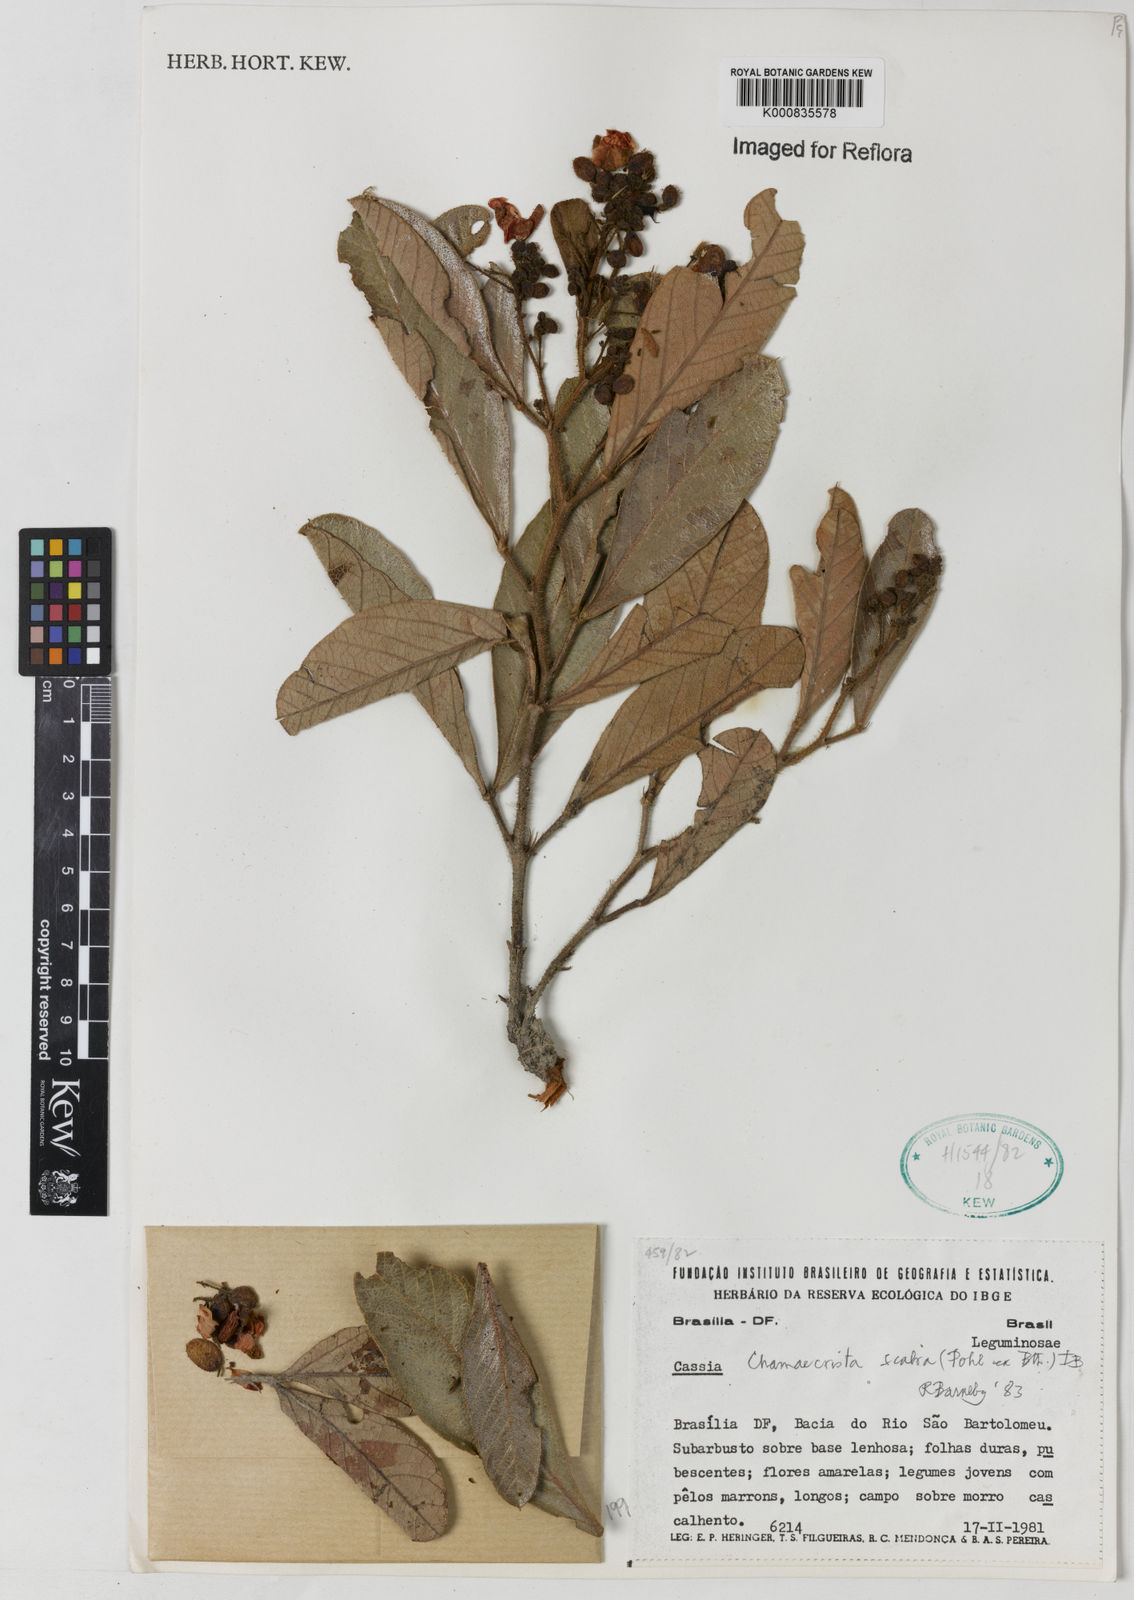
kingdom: Plantae
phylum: Tracheophyta
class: Magnoliopsida
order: Fabales
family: Fabaceae
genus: Chamaecrista
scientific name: Chamaecrista scabra
